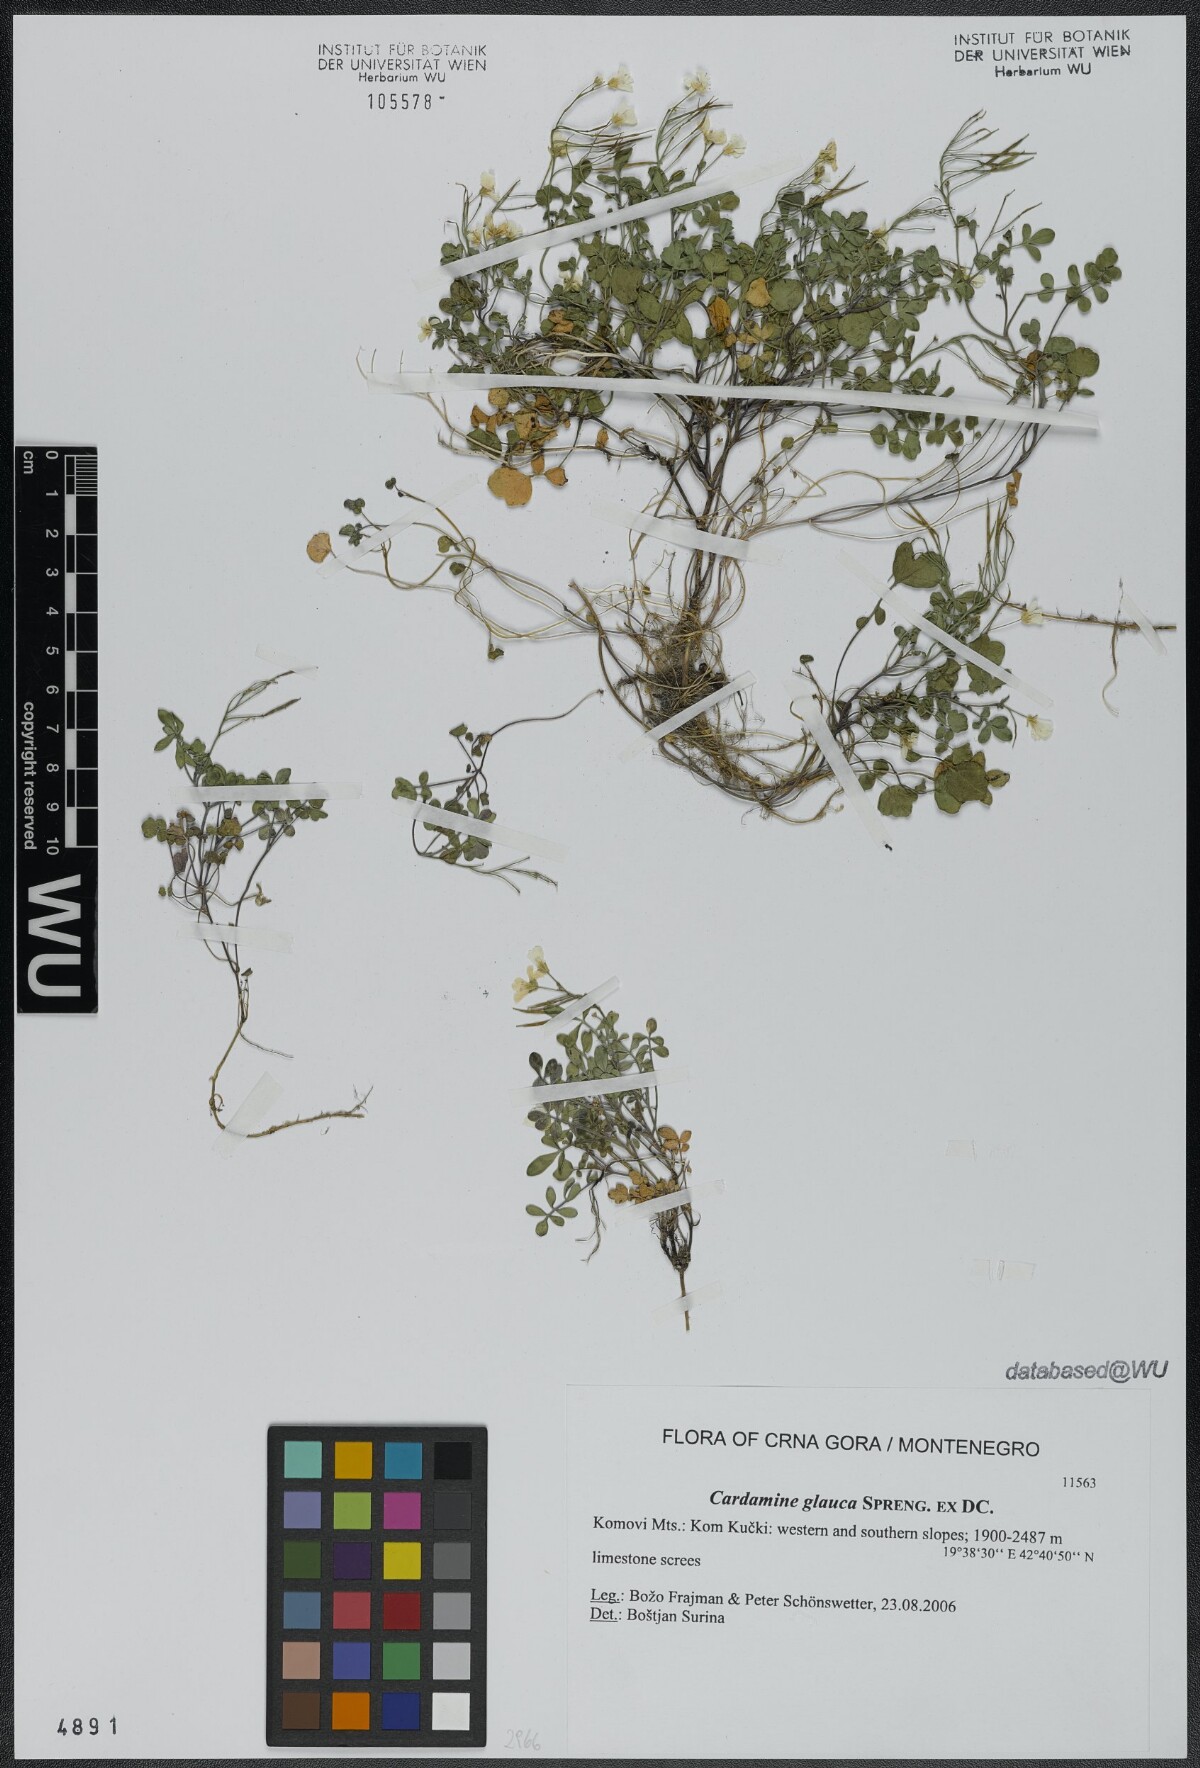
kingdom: Plantae
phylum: Tracheophyta
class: Magnoliopsida
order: Brassicales
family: Brassicaceae
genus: Cardamine
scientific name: Cardamine glauca
